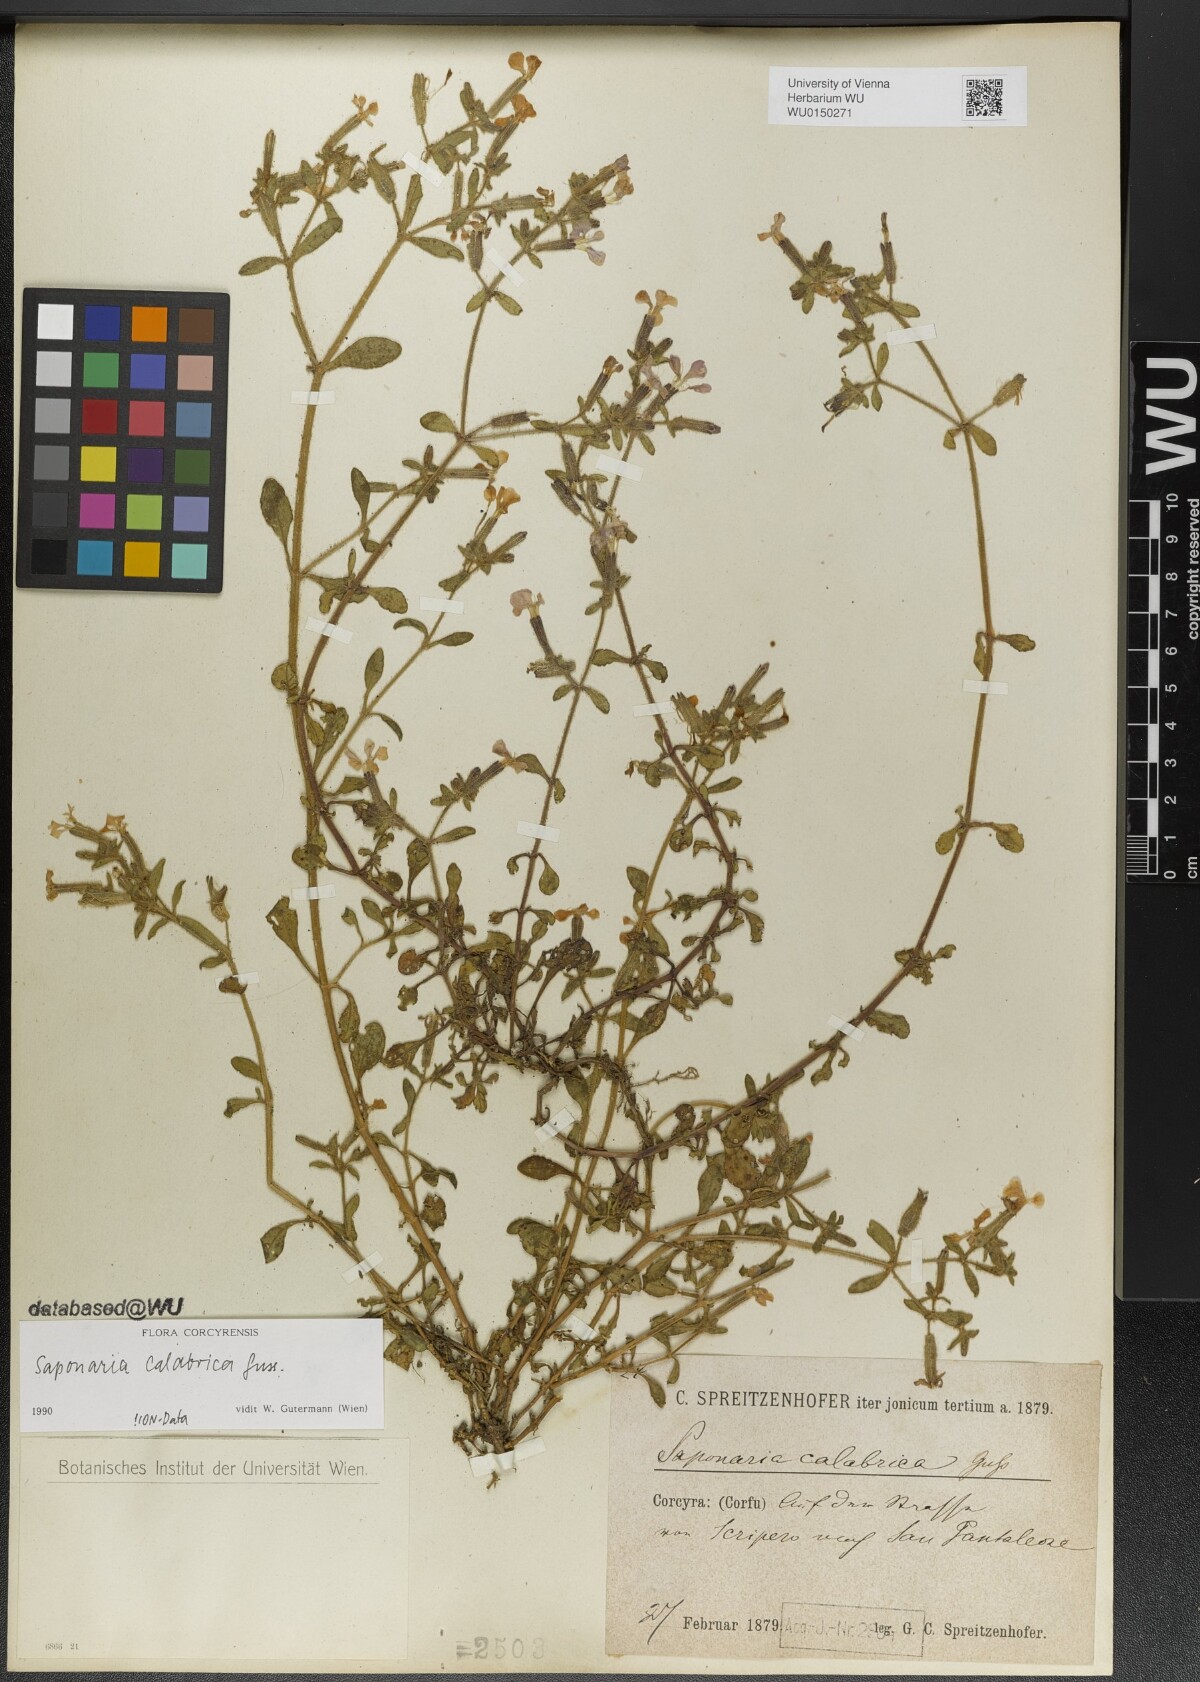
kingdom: Plantae
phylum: Tracheophyta
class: Magnoliopsida
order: Caryophyllales
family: Caryophyllaceae
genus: Saponaria
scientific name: Saponaria calabrica
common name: Adriatic soapwort
